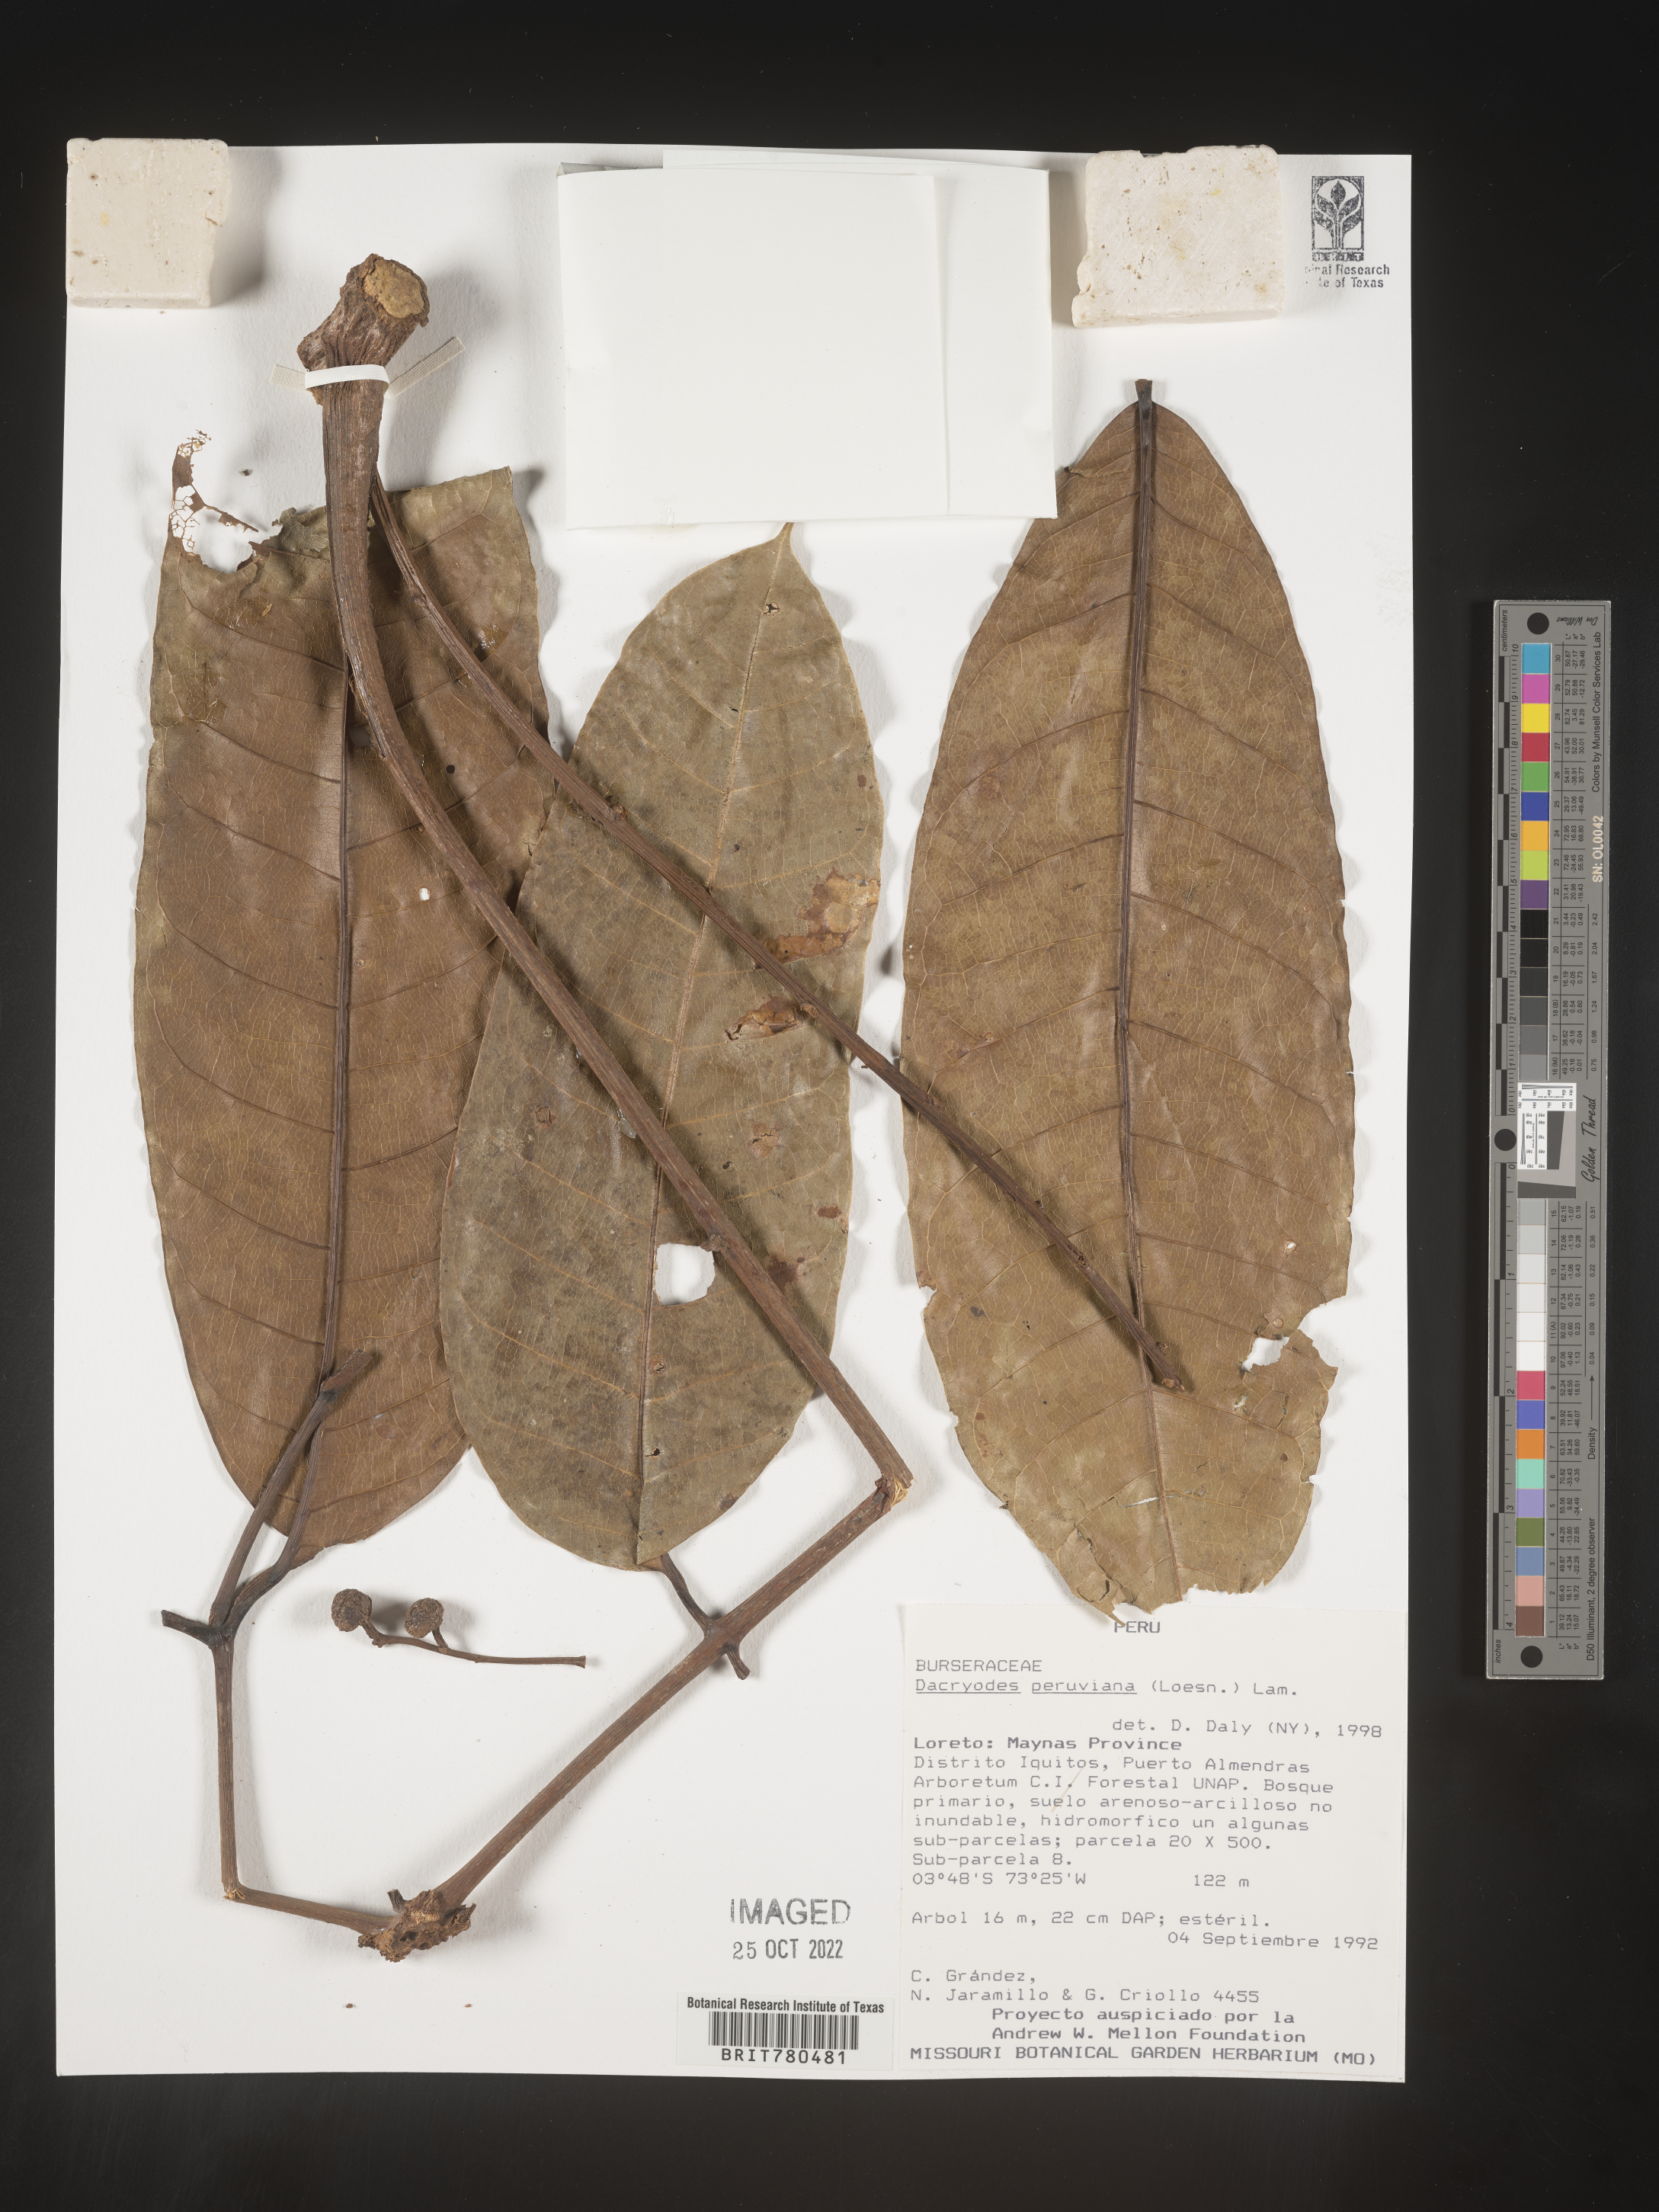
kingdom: Plantae
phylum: Tracheophyta
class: Magnoliopsida
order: Sapindales
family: Burseraceae
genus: Dacryodes
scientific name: Dacryodes
